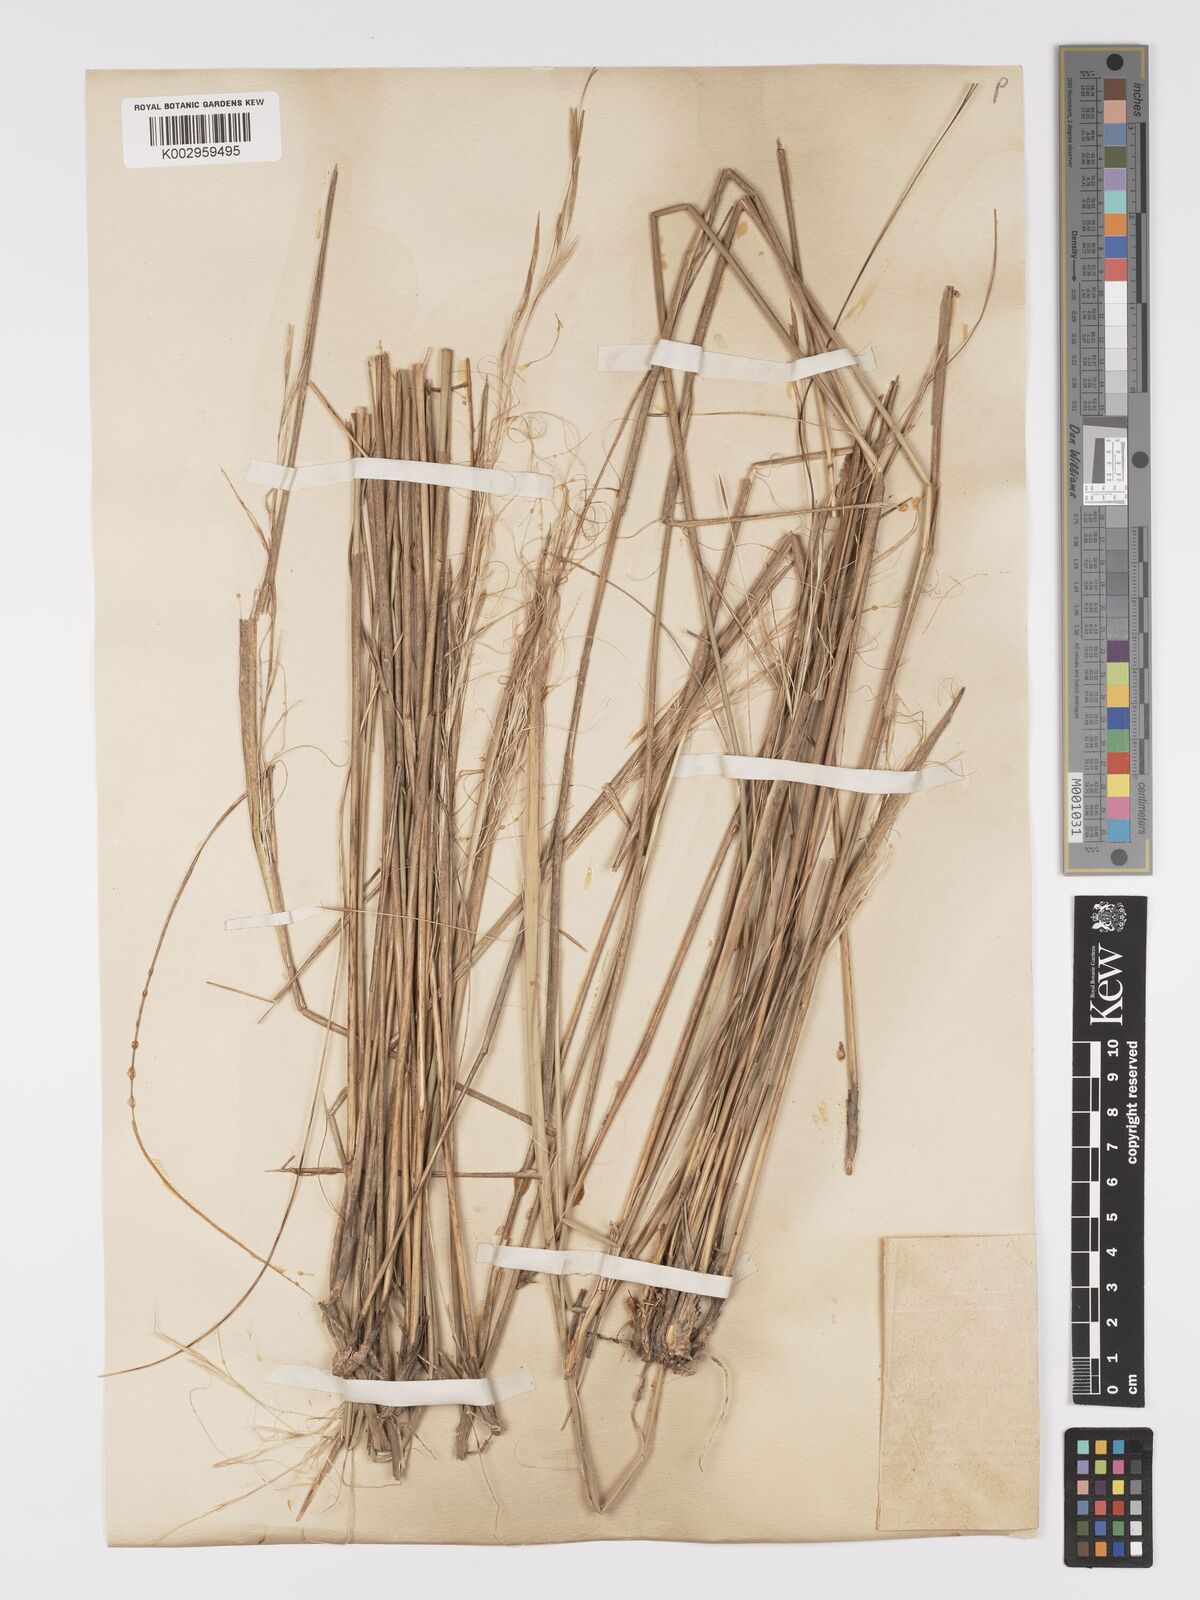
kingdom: Plantae
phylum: Tracheophyta
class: Liliopsida
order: Poales
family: Poaceae
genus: Stipa
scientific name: Stipa capillata
